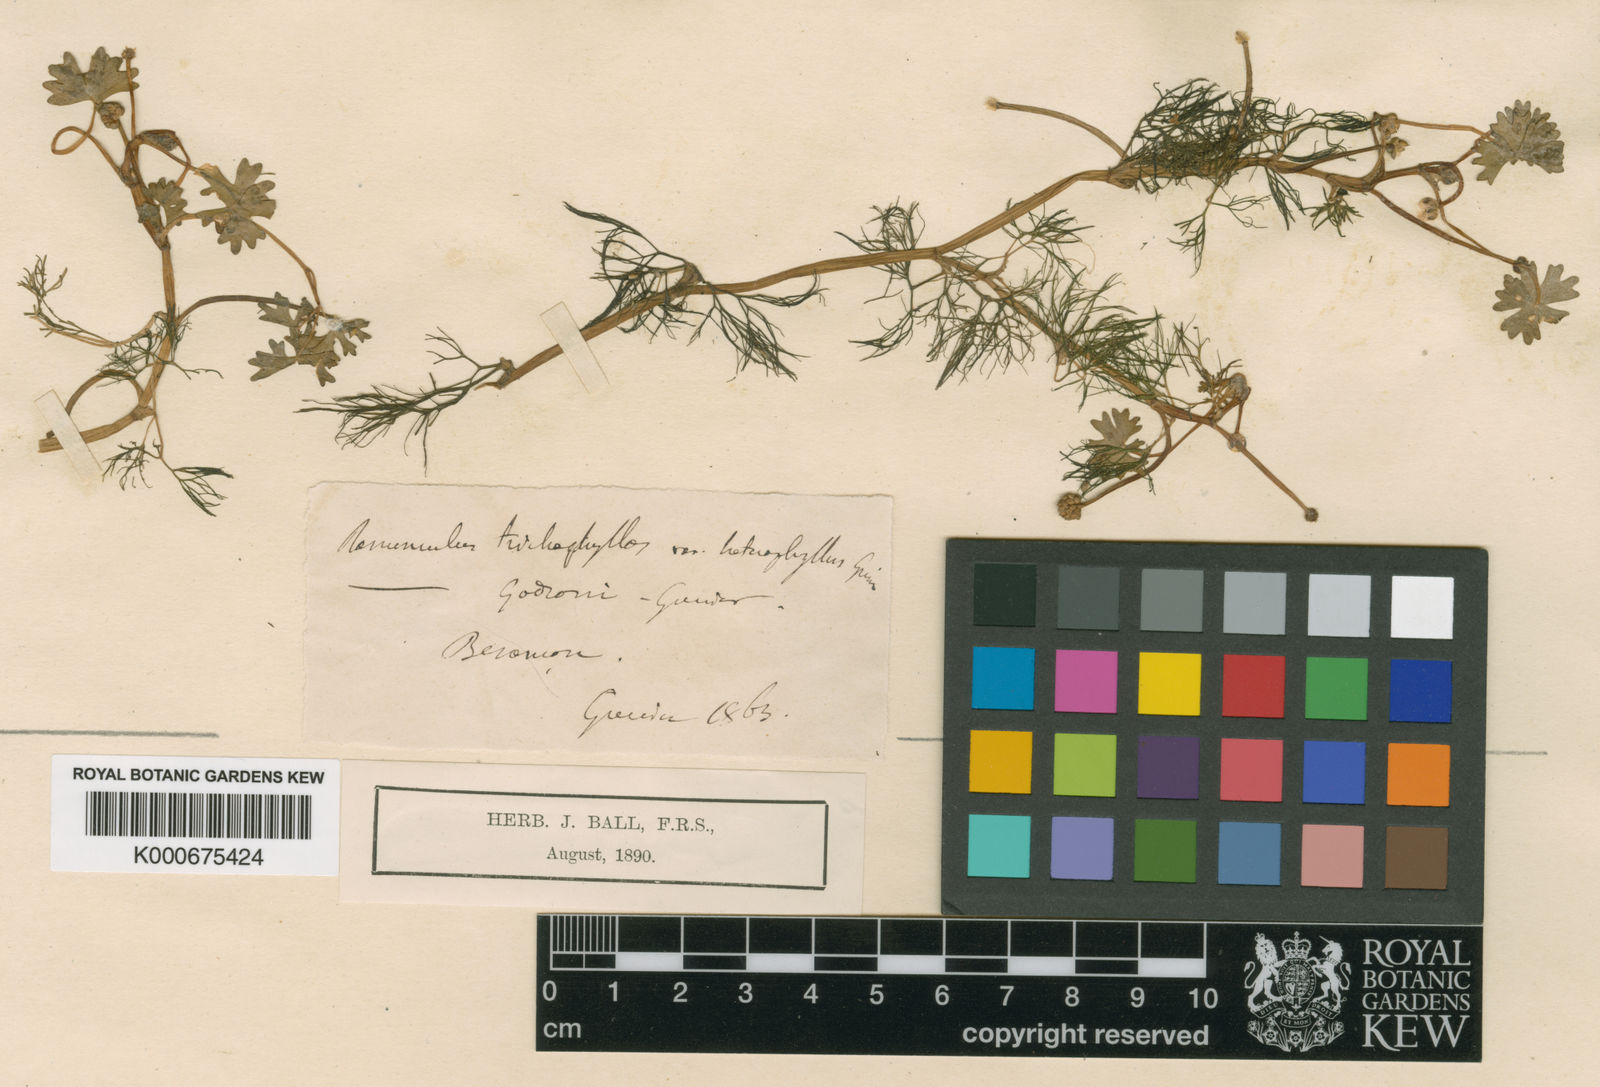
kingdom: Plantae
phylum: Tracheophyta
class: Magnoliopsida
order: Ranunculales
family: Ranunculaceae
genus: Ranunculus
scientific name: Ranunculus aquatilis
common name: Common water-crowfoot
